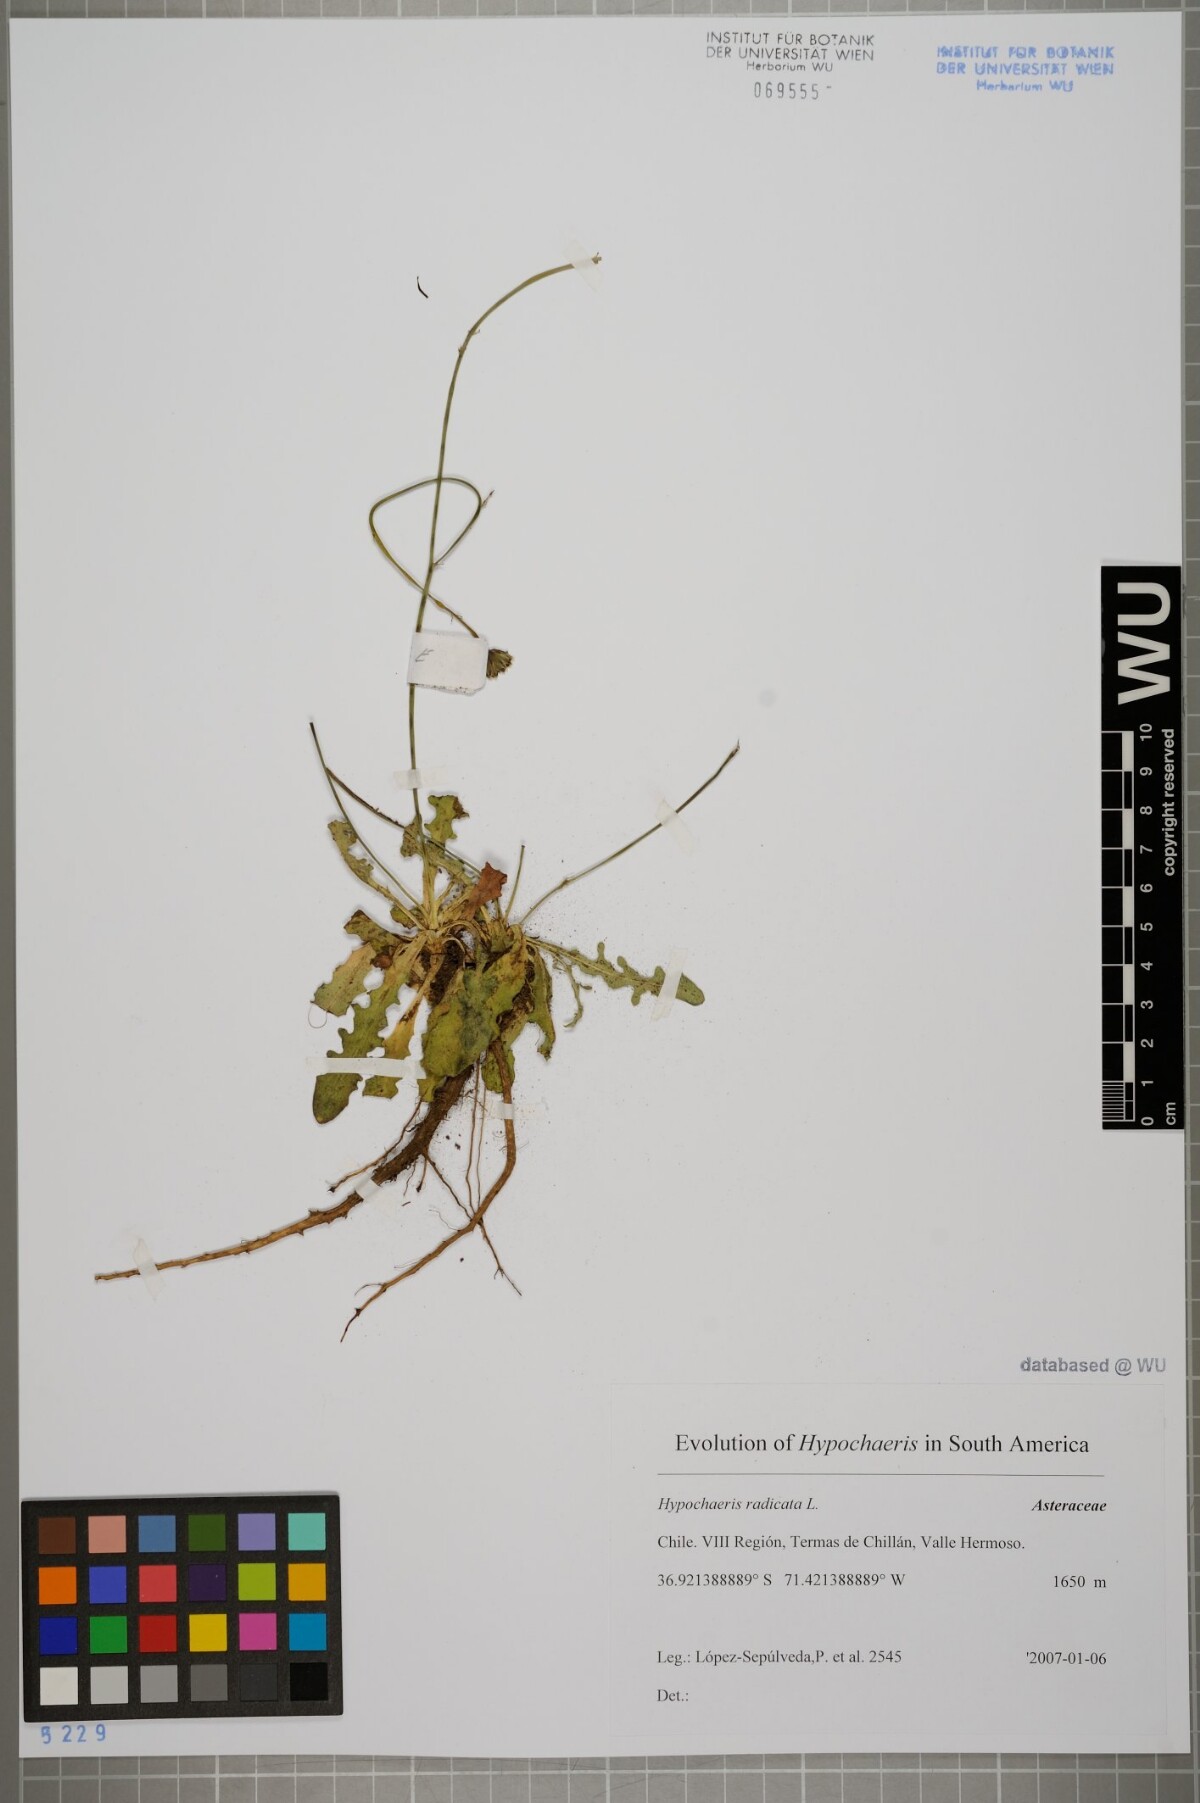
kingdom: Plantae
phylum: Tracheophyta
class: Magnoliopsida
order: Asterales
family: Asteraceae
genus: Hypochaeris
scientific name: Hypochaeris radicata
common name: Flatweed
